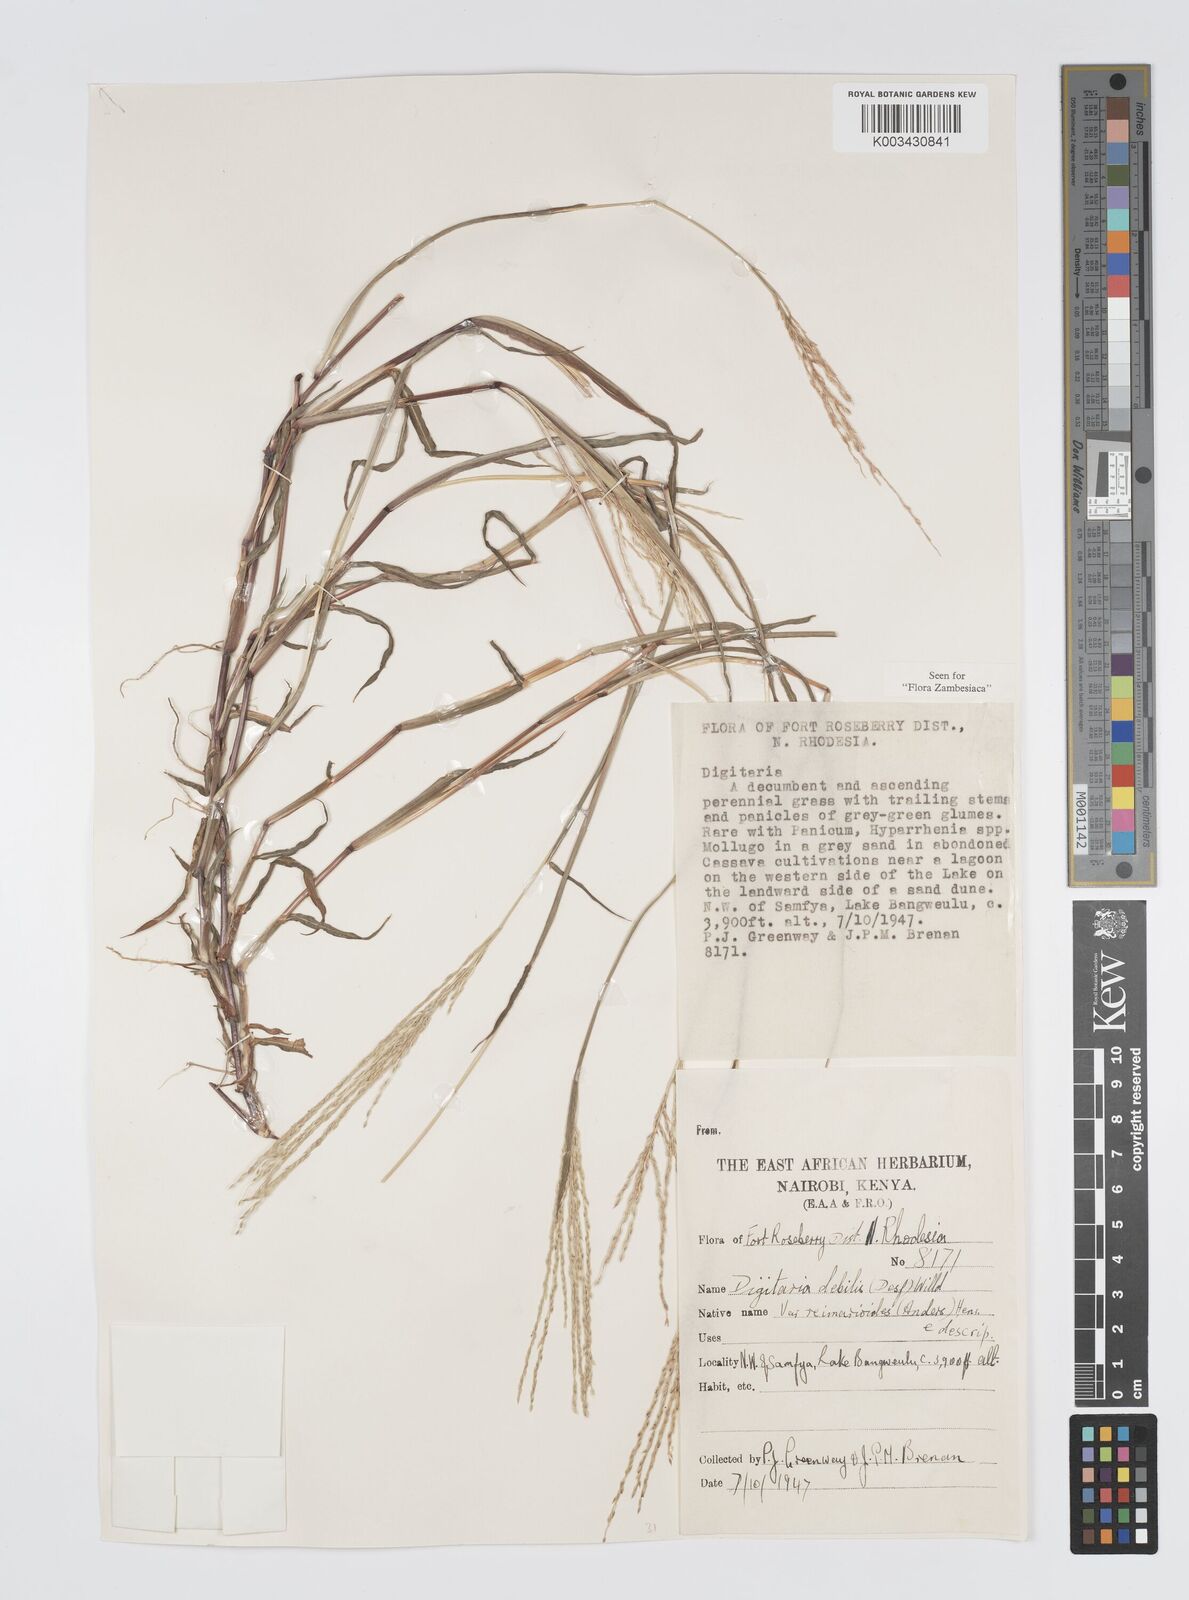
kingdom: Plantae
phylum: Tracheophyta
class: Liliopsida
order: Poales
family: Poaceae
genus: Digitaria
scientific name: Digitaria debilis
